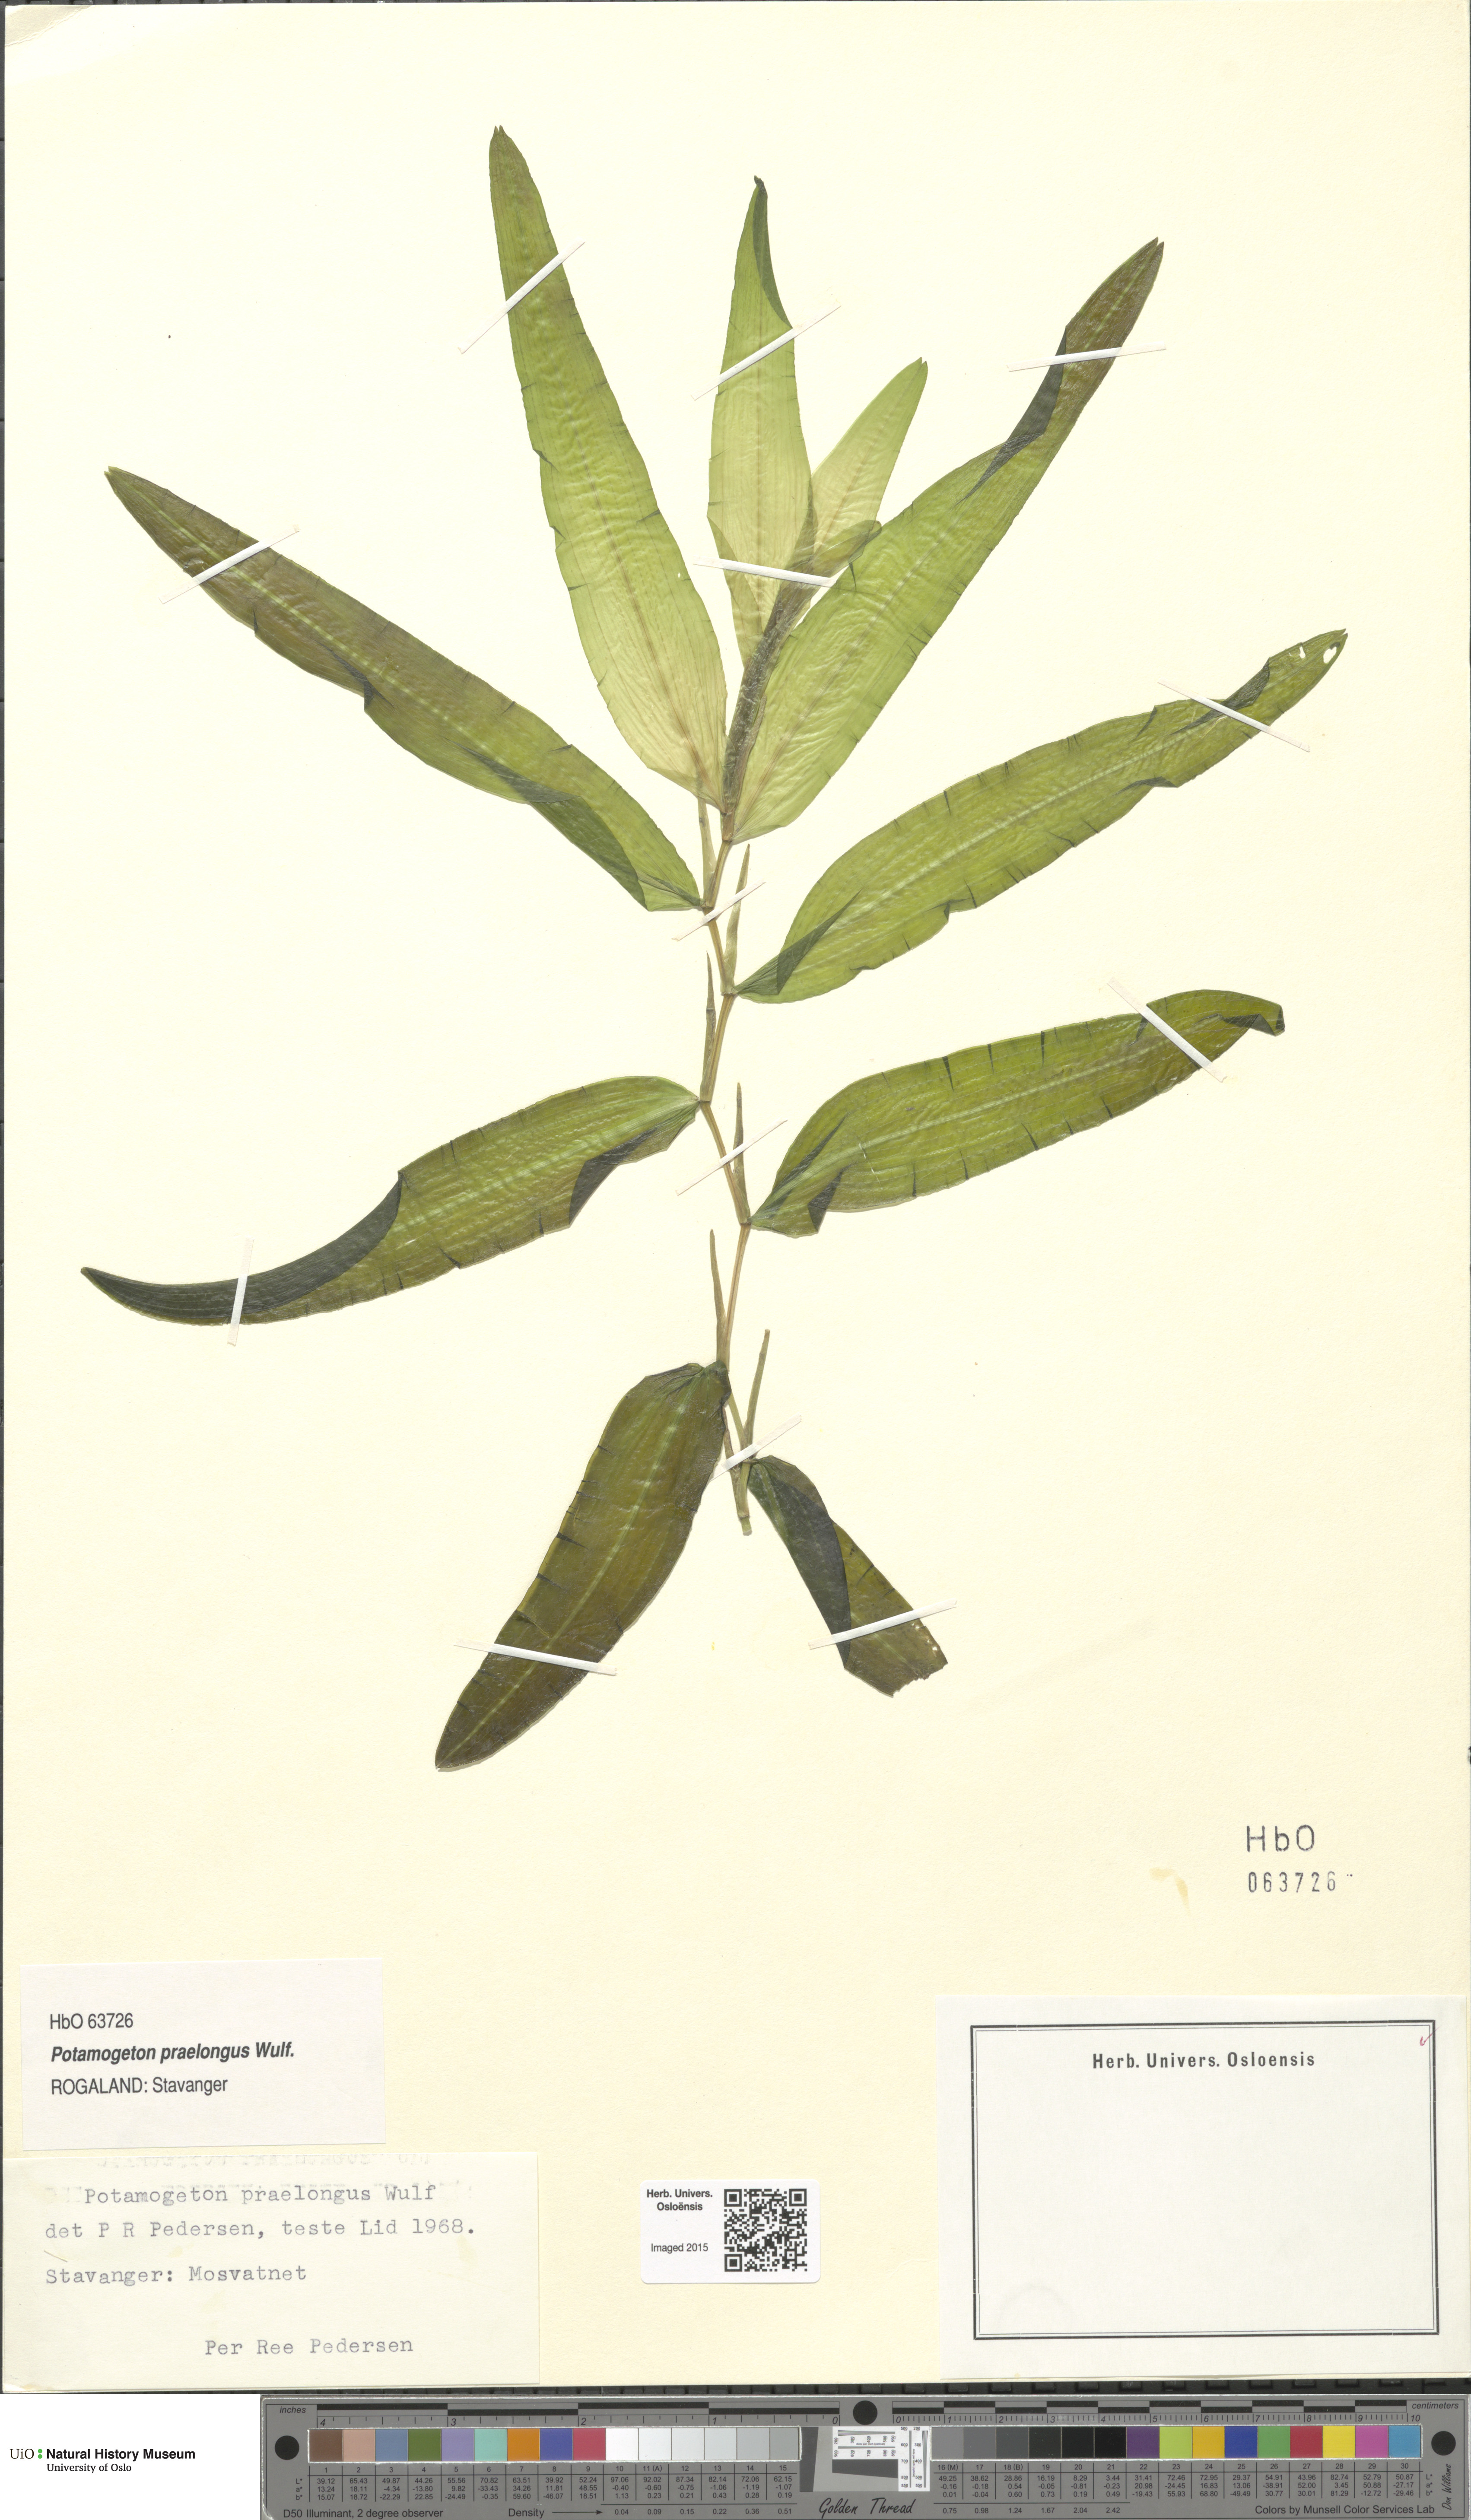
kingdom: Plantae
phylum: Tracheophyta
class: Liliopsida
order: Alismatales
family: Potamogetonaceae
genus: Potamogeton
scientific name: Potamogeton praelongus
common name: Long-stalked pondweed
